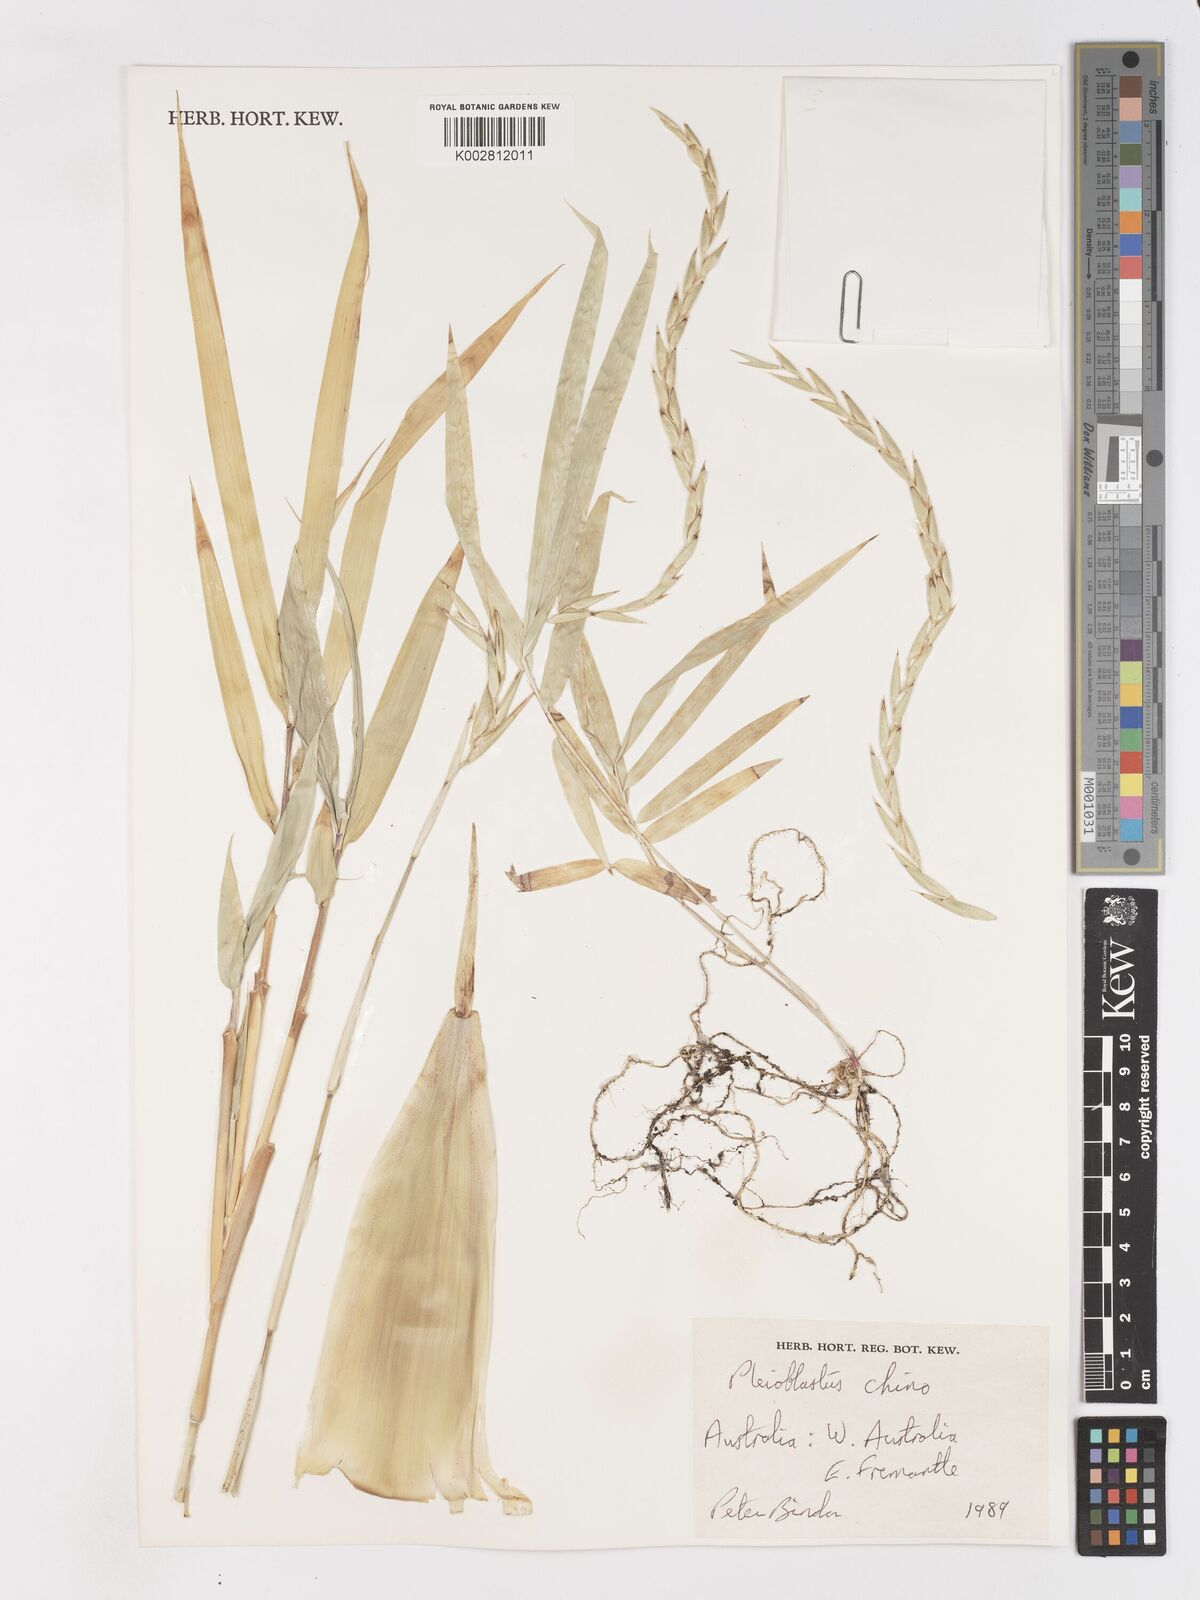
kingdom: Plantae
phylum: Tracheophyta
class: Liliopsida
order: Poales
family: Poaceae
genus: Pleioblastus
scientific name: Pleioblastus argenteostriatus
